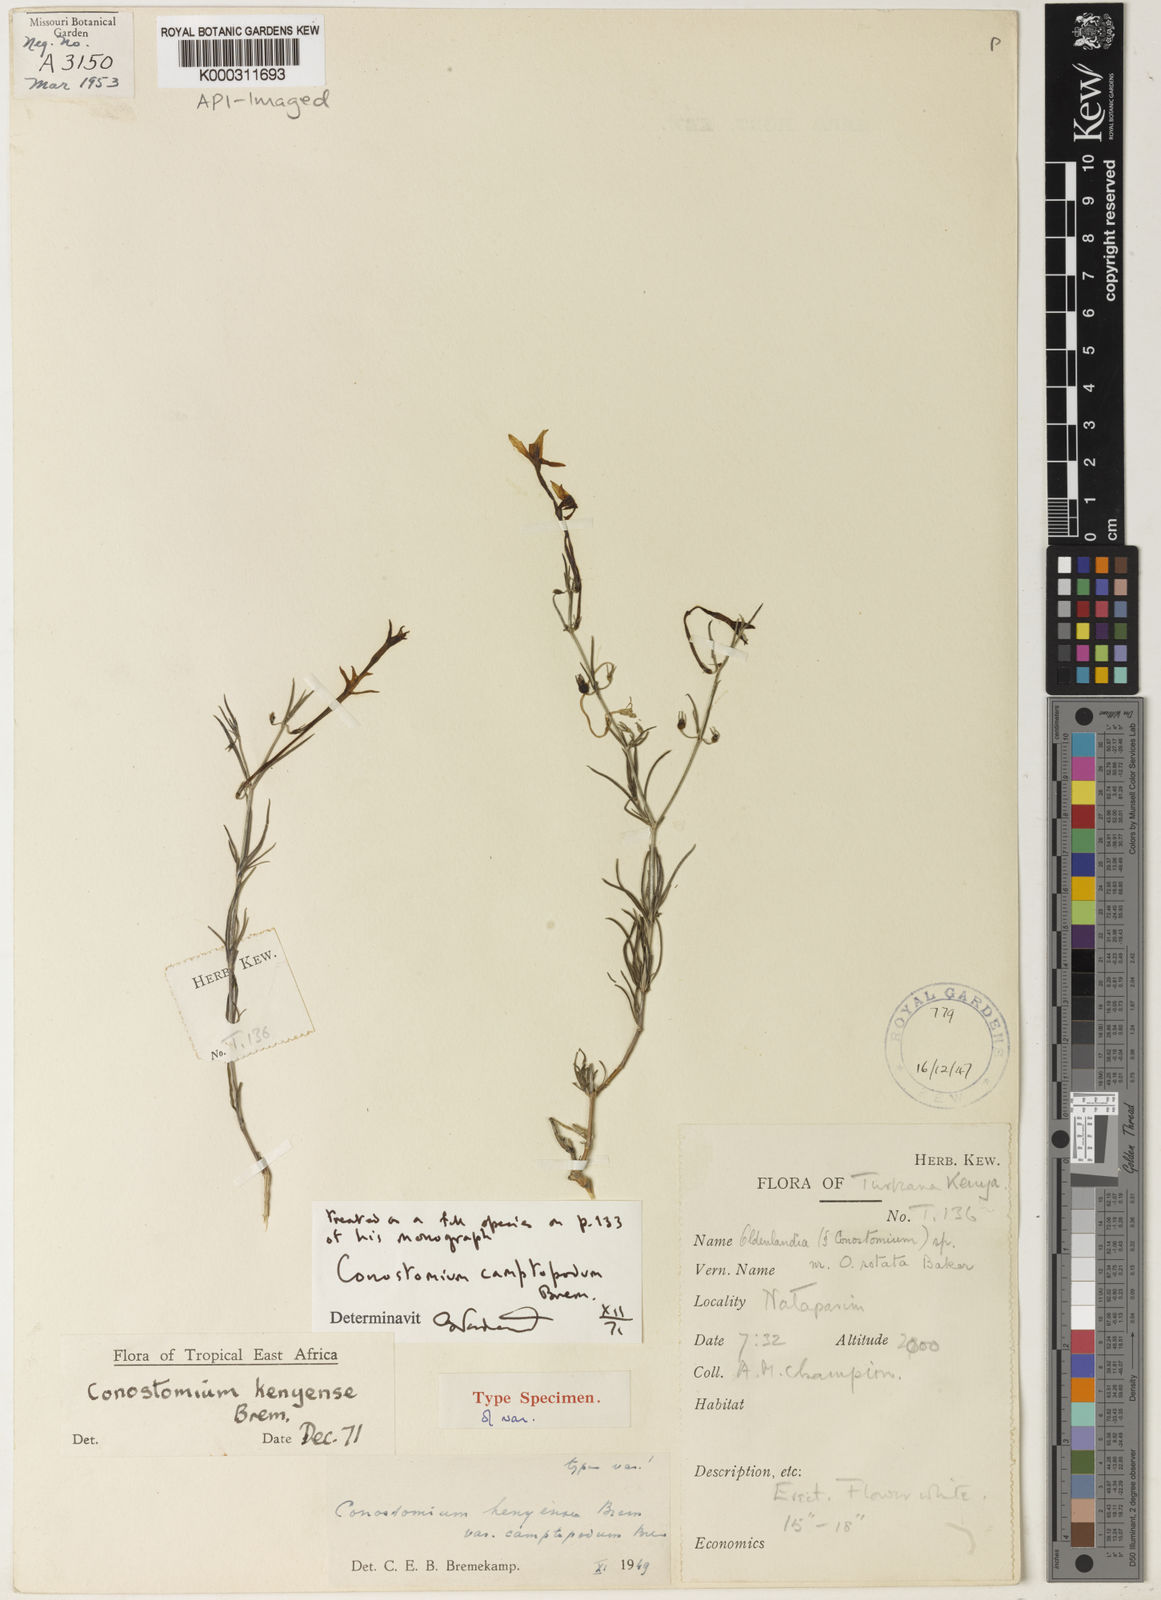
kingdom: Plantae
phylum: Tracheophyta
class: Magnoliopsida
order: Gentianales
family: Rubiaceae
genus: Conostomium
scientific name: Conostomium longitubum
